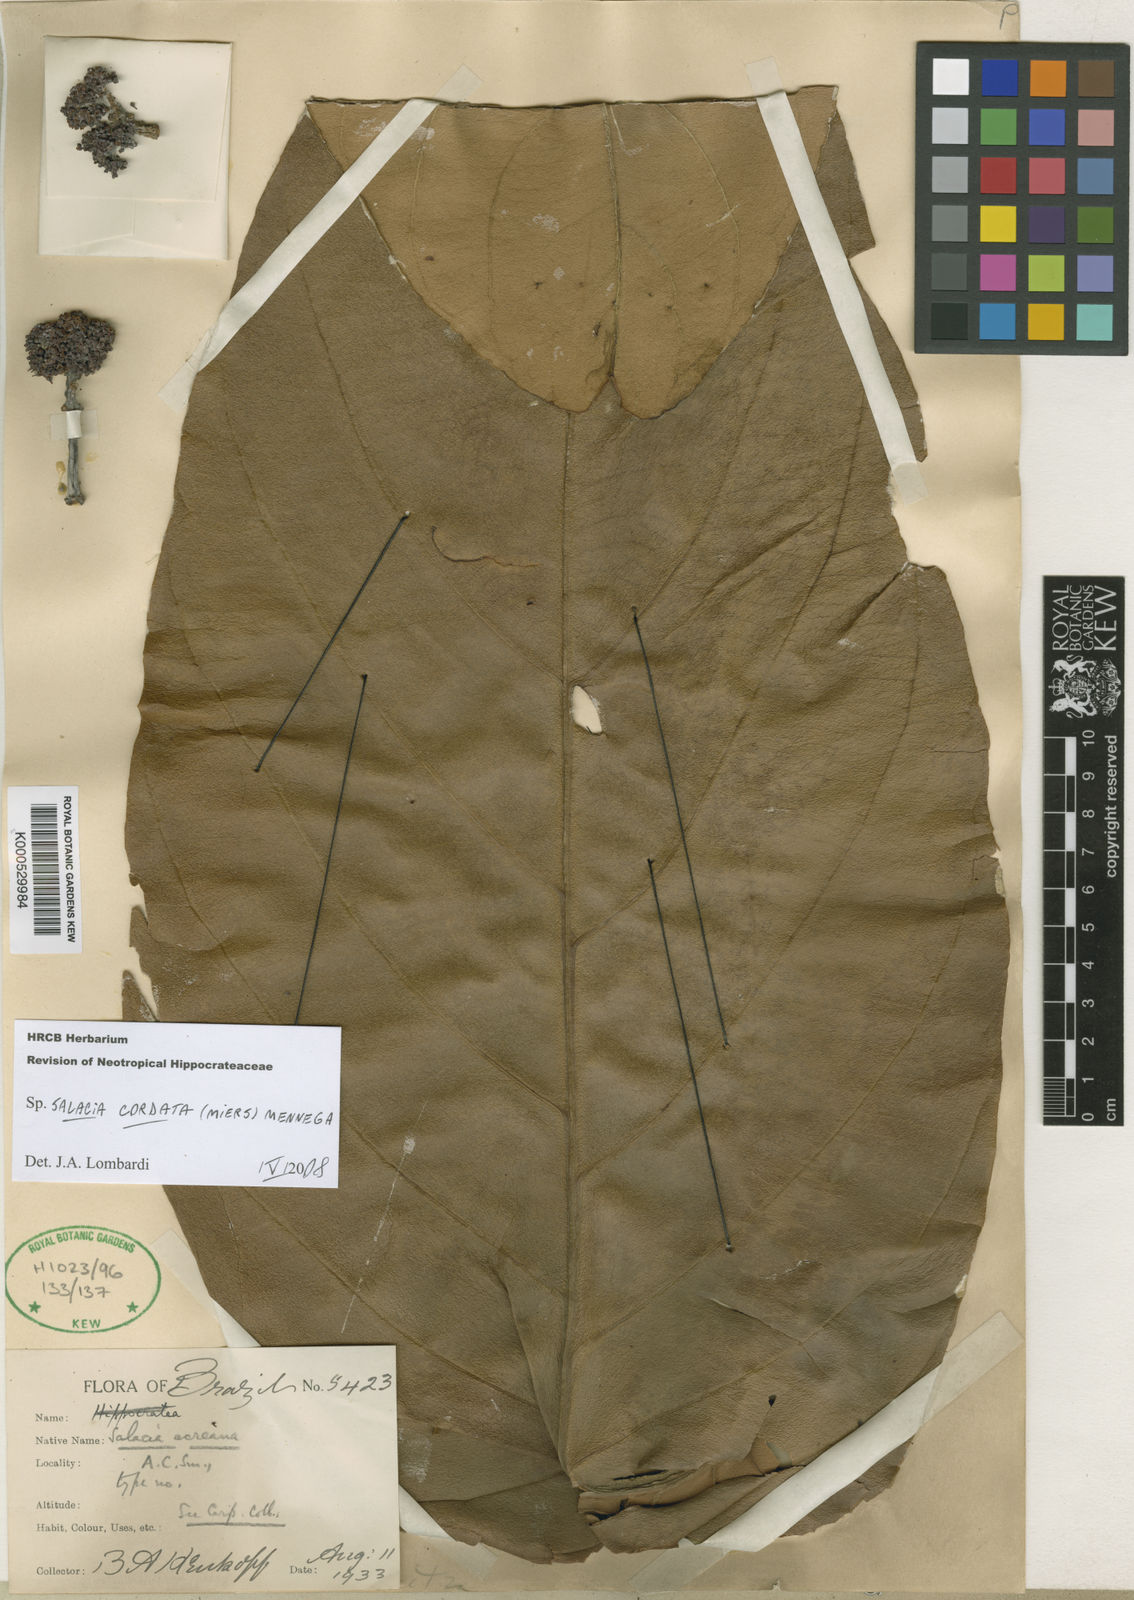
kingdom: Plantae
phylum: Tracheophyta
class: Magnoliopsida
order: Celastrales
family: Celastraceae
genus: Salacia
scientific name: Salacia cordata
